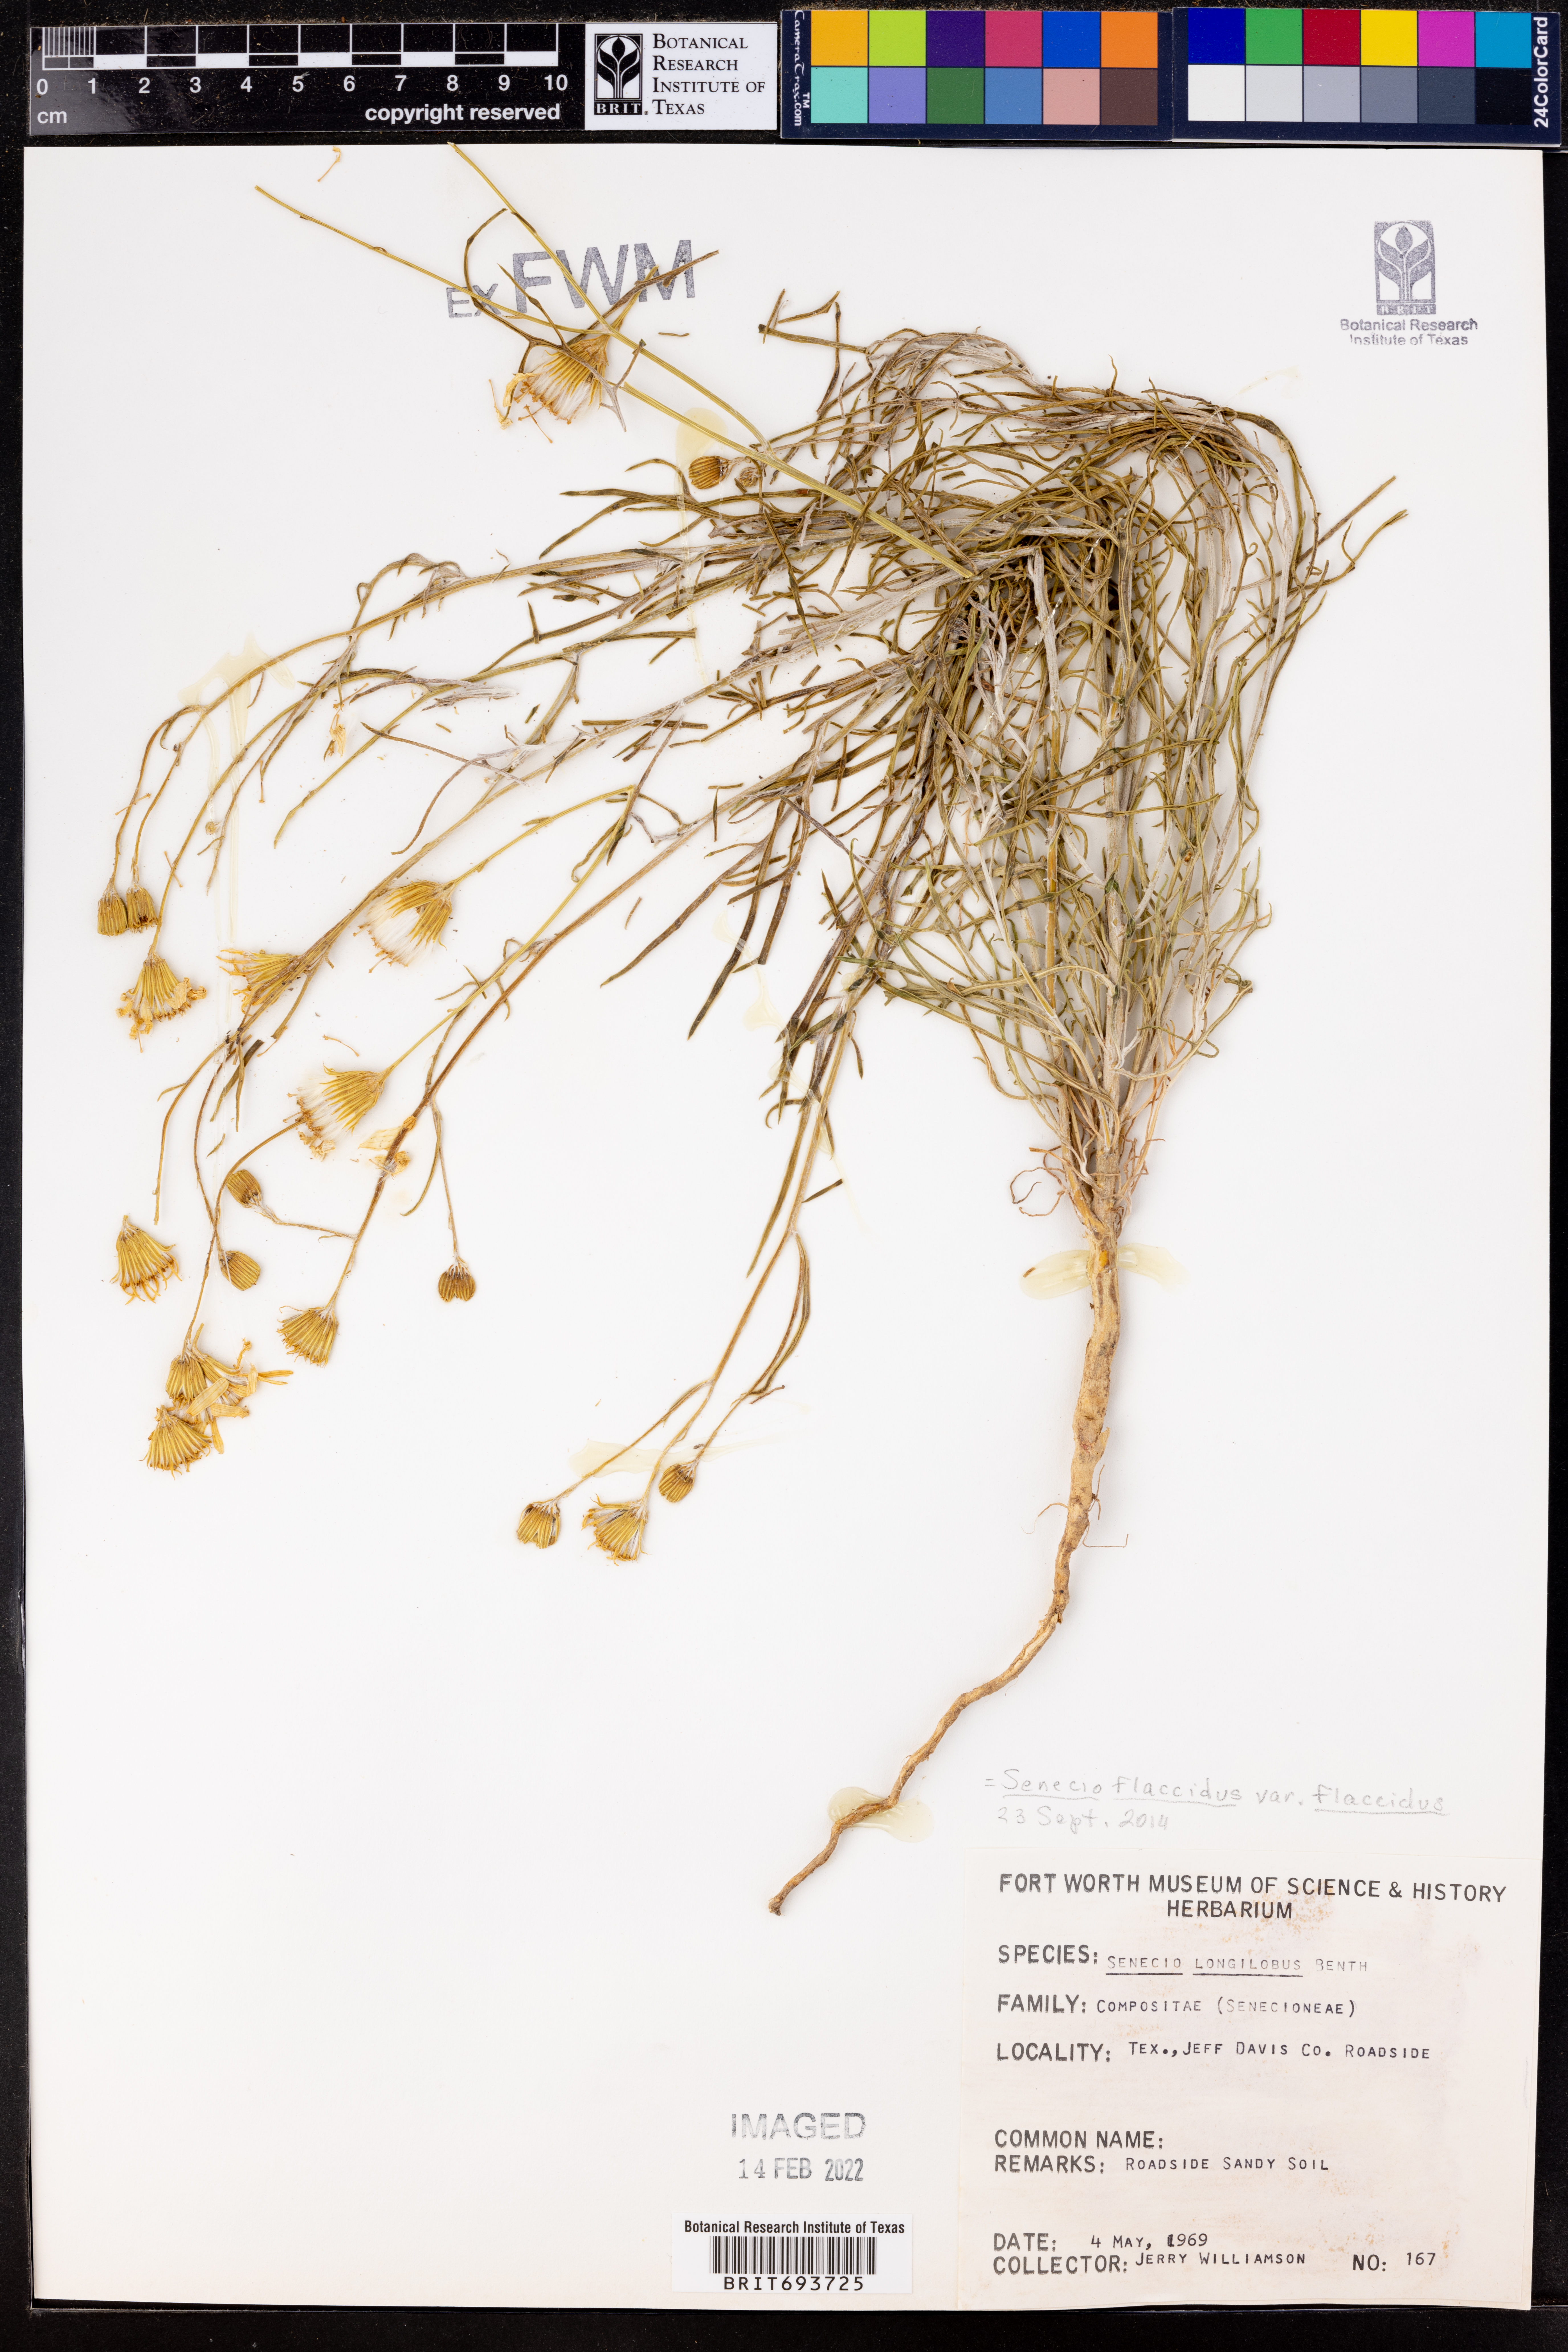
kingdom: Plantae
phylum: Tracheophyta
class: Magnoliopsida
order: Asterales
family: Asteraceae
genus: Senecio
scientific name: Senecio flaccidus
